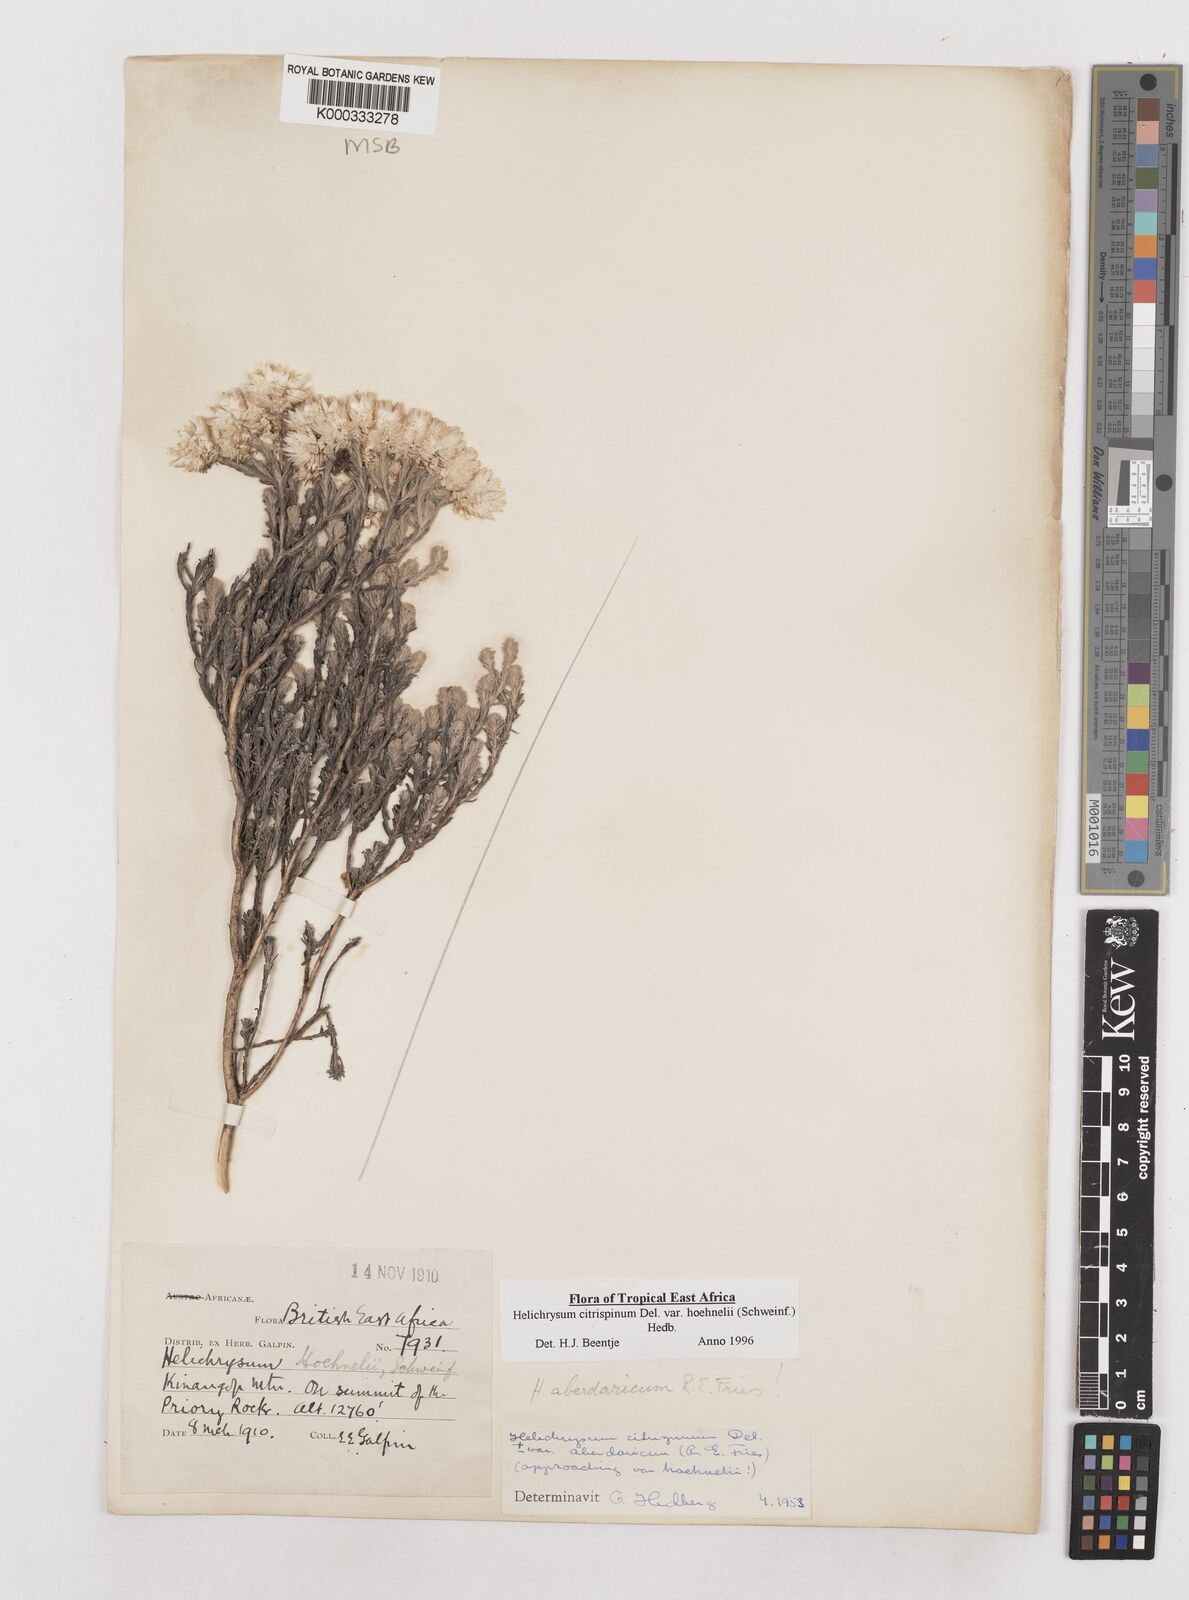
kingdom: Plantae
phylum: Tracheophyta
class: Magnoliopsida
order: Asterales
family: Asteraceae
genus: Helichrysum
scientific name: Helichrysum citrispinum
